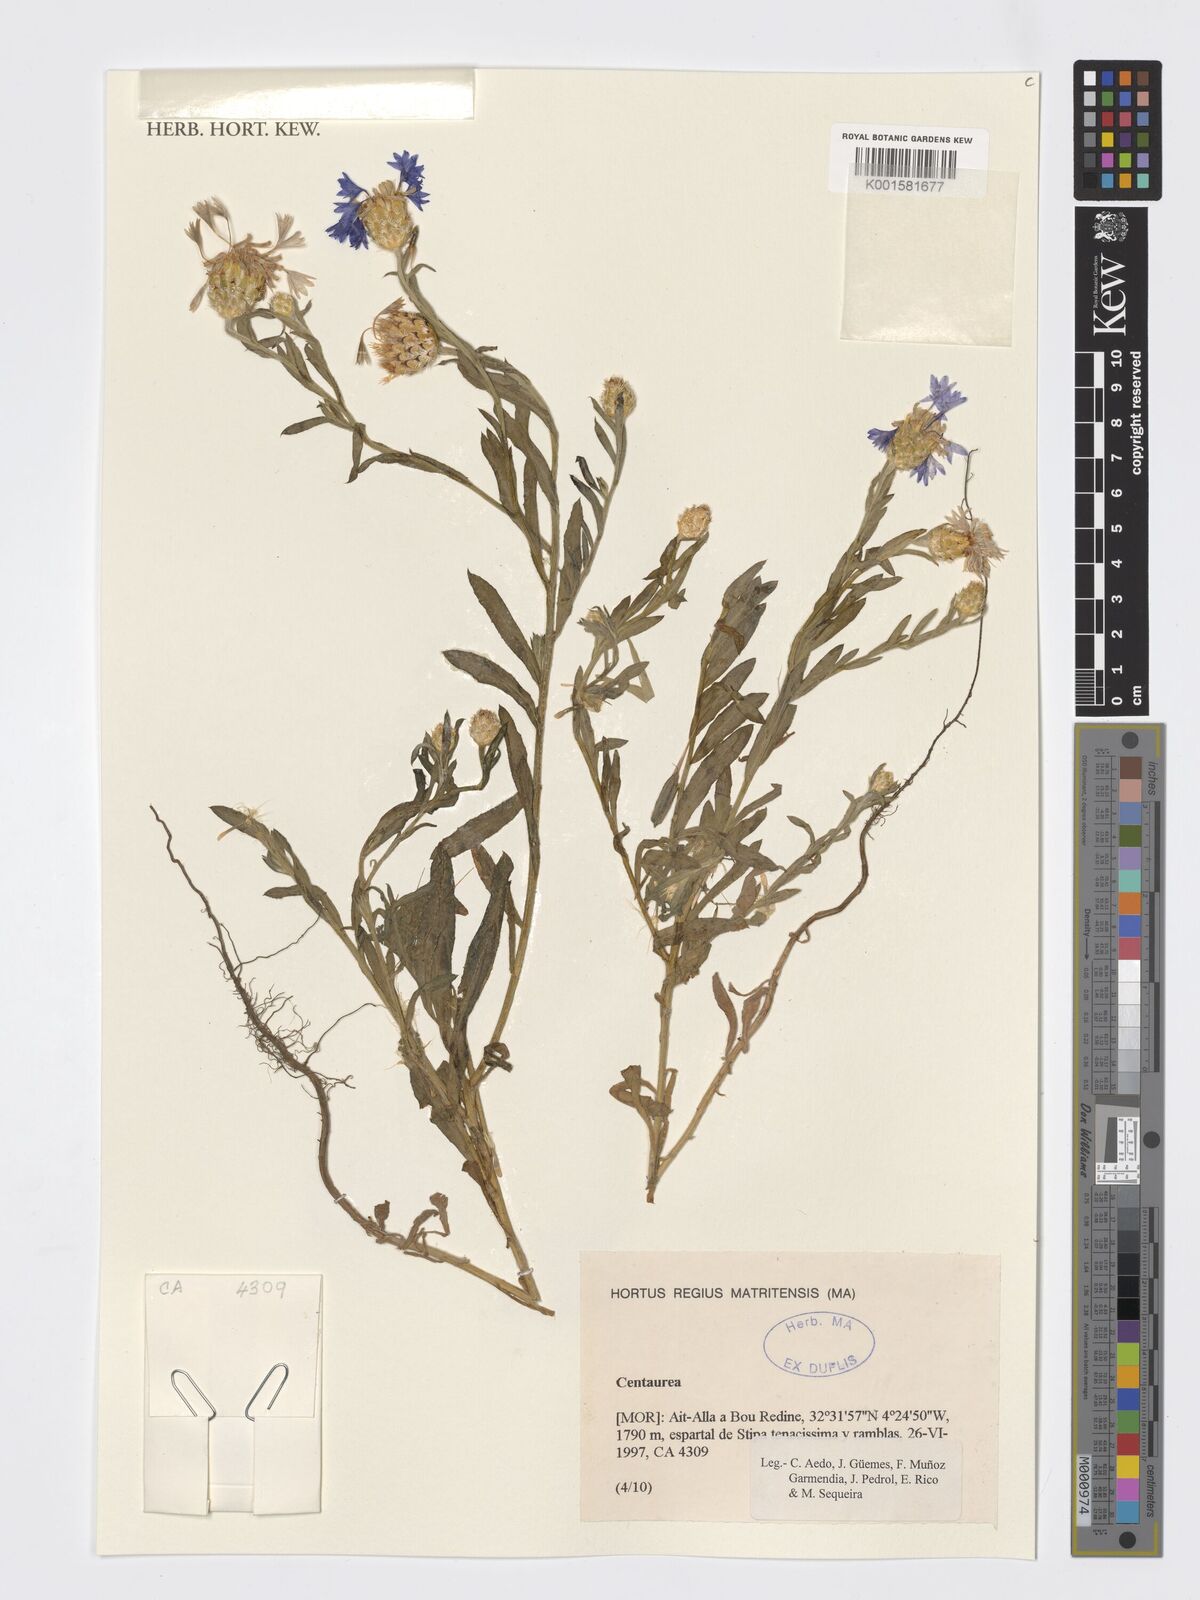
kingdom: Plantae
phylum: Tracheophyta
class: Magnoliopsida
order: Asterales
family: Asteraceae
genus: Centaurea
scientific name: Centaurea
